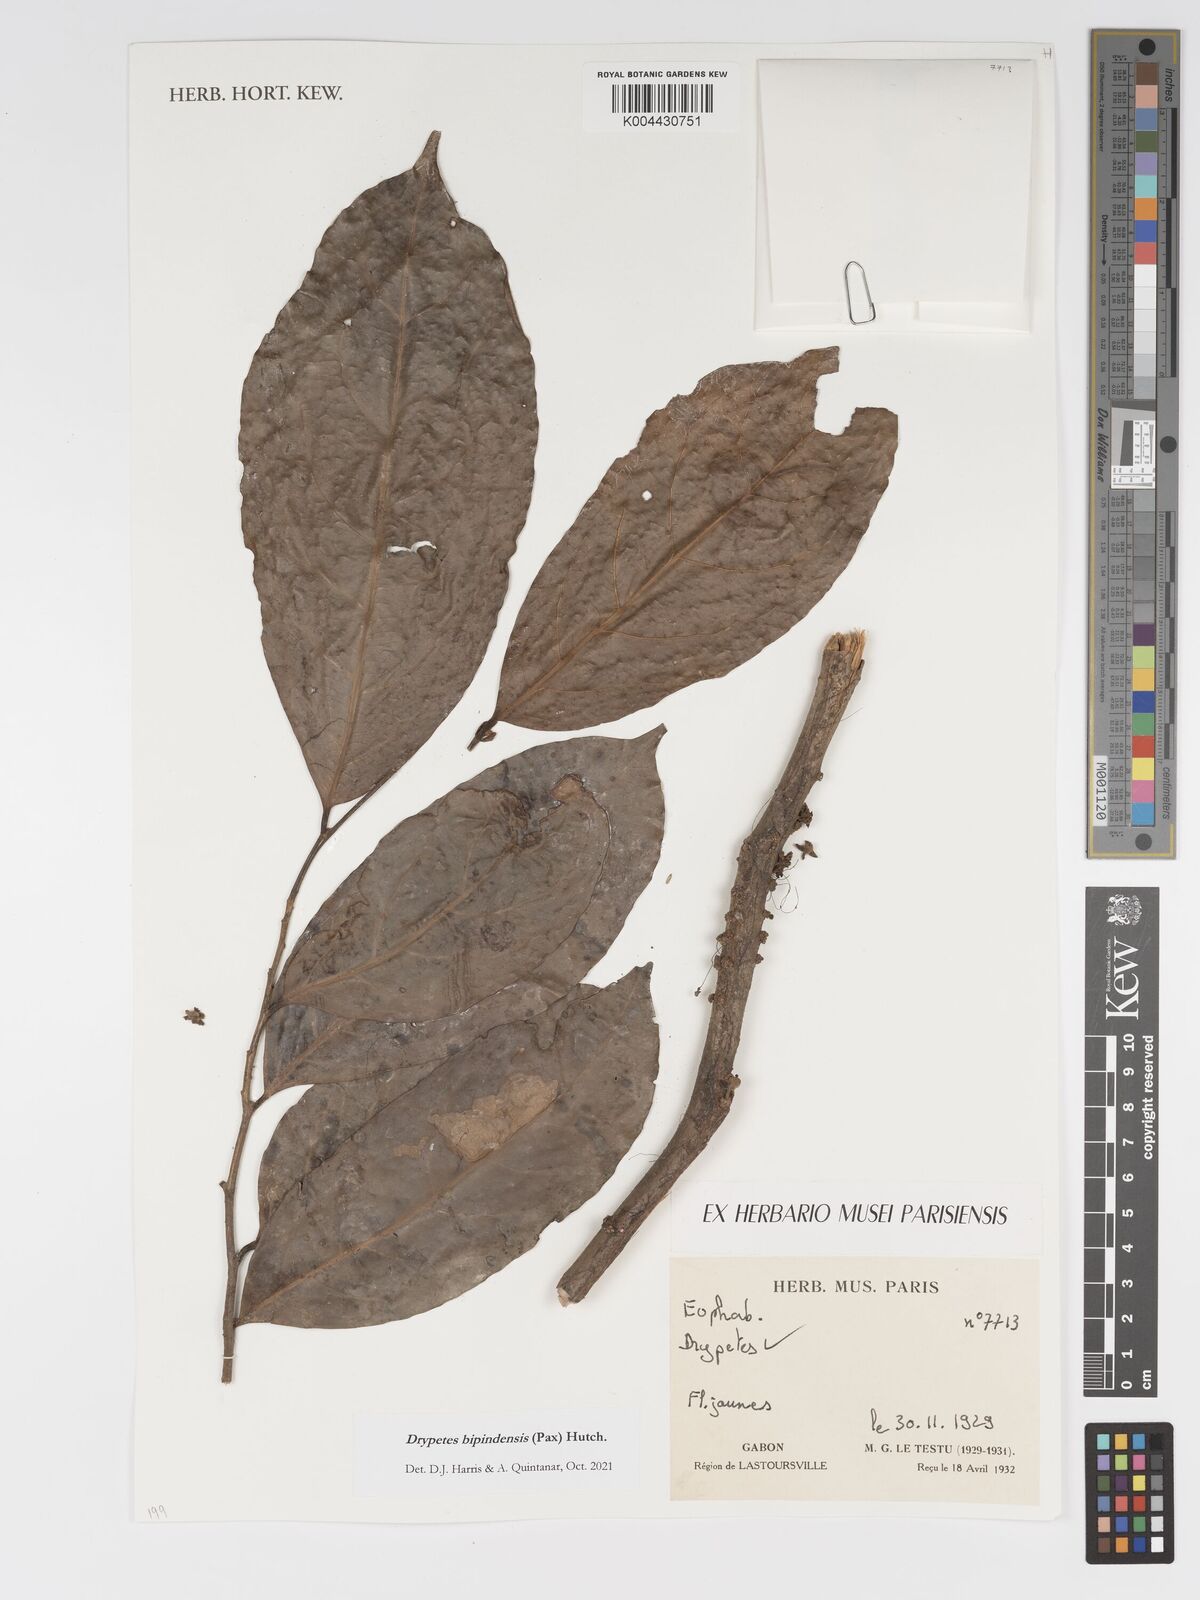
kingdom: Plantae
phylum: Tracheophyta
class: Magnoliopsida
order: Malpighiales
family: Putranjivaceae
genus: Drypetes
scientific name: Drypetes bipindensis
